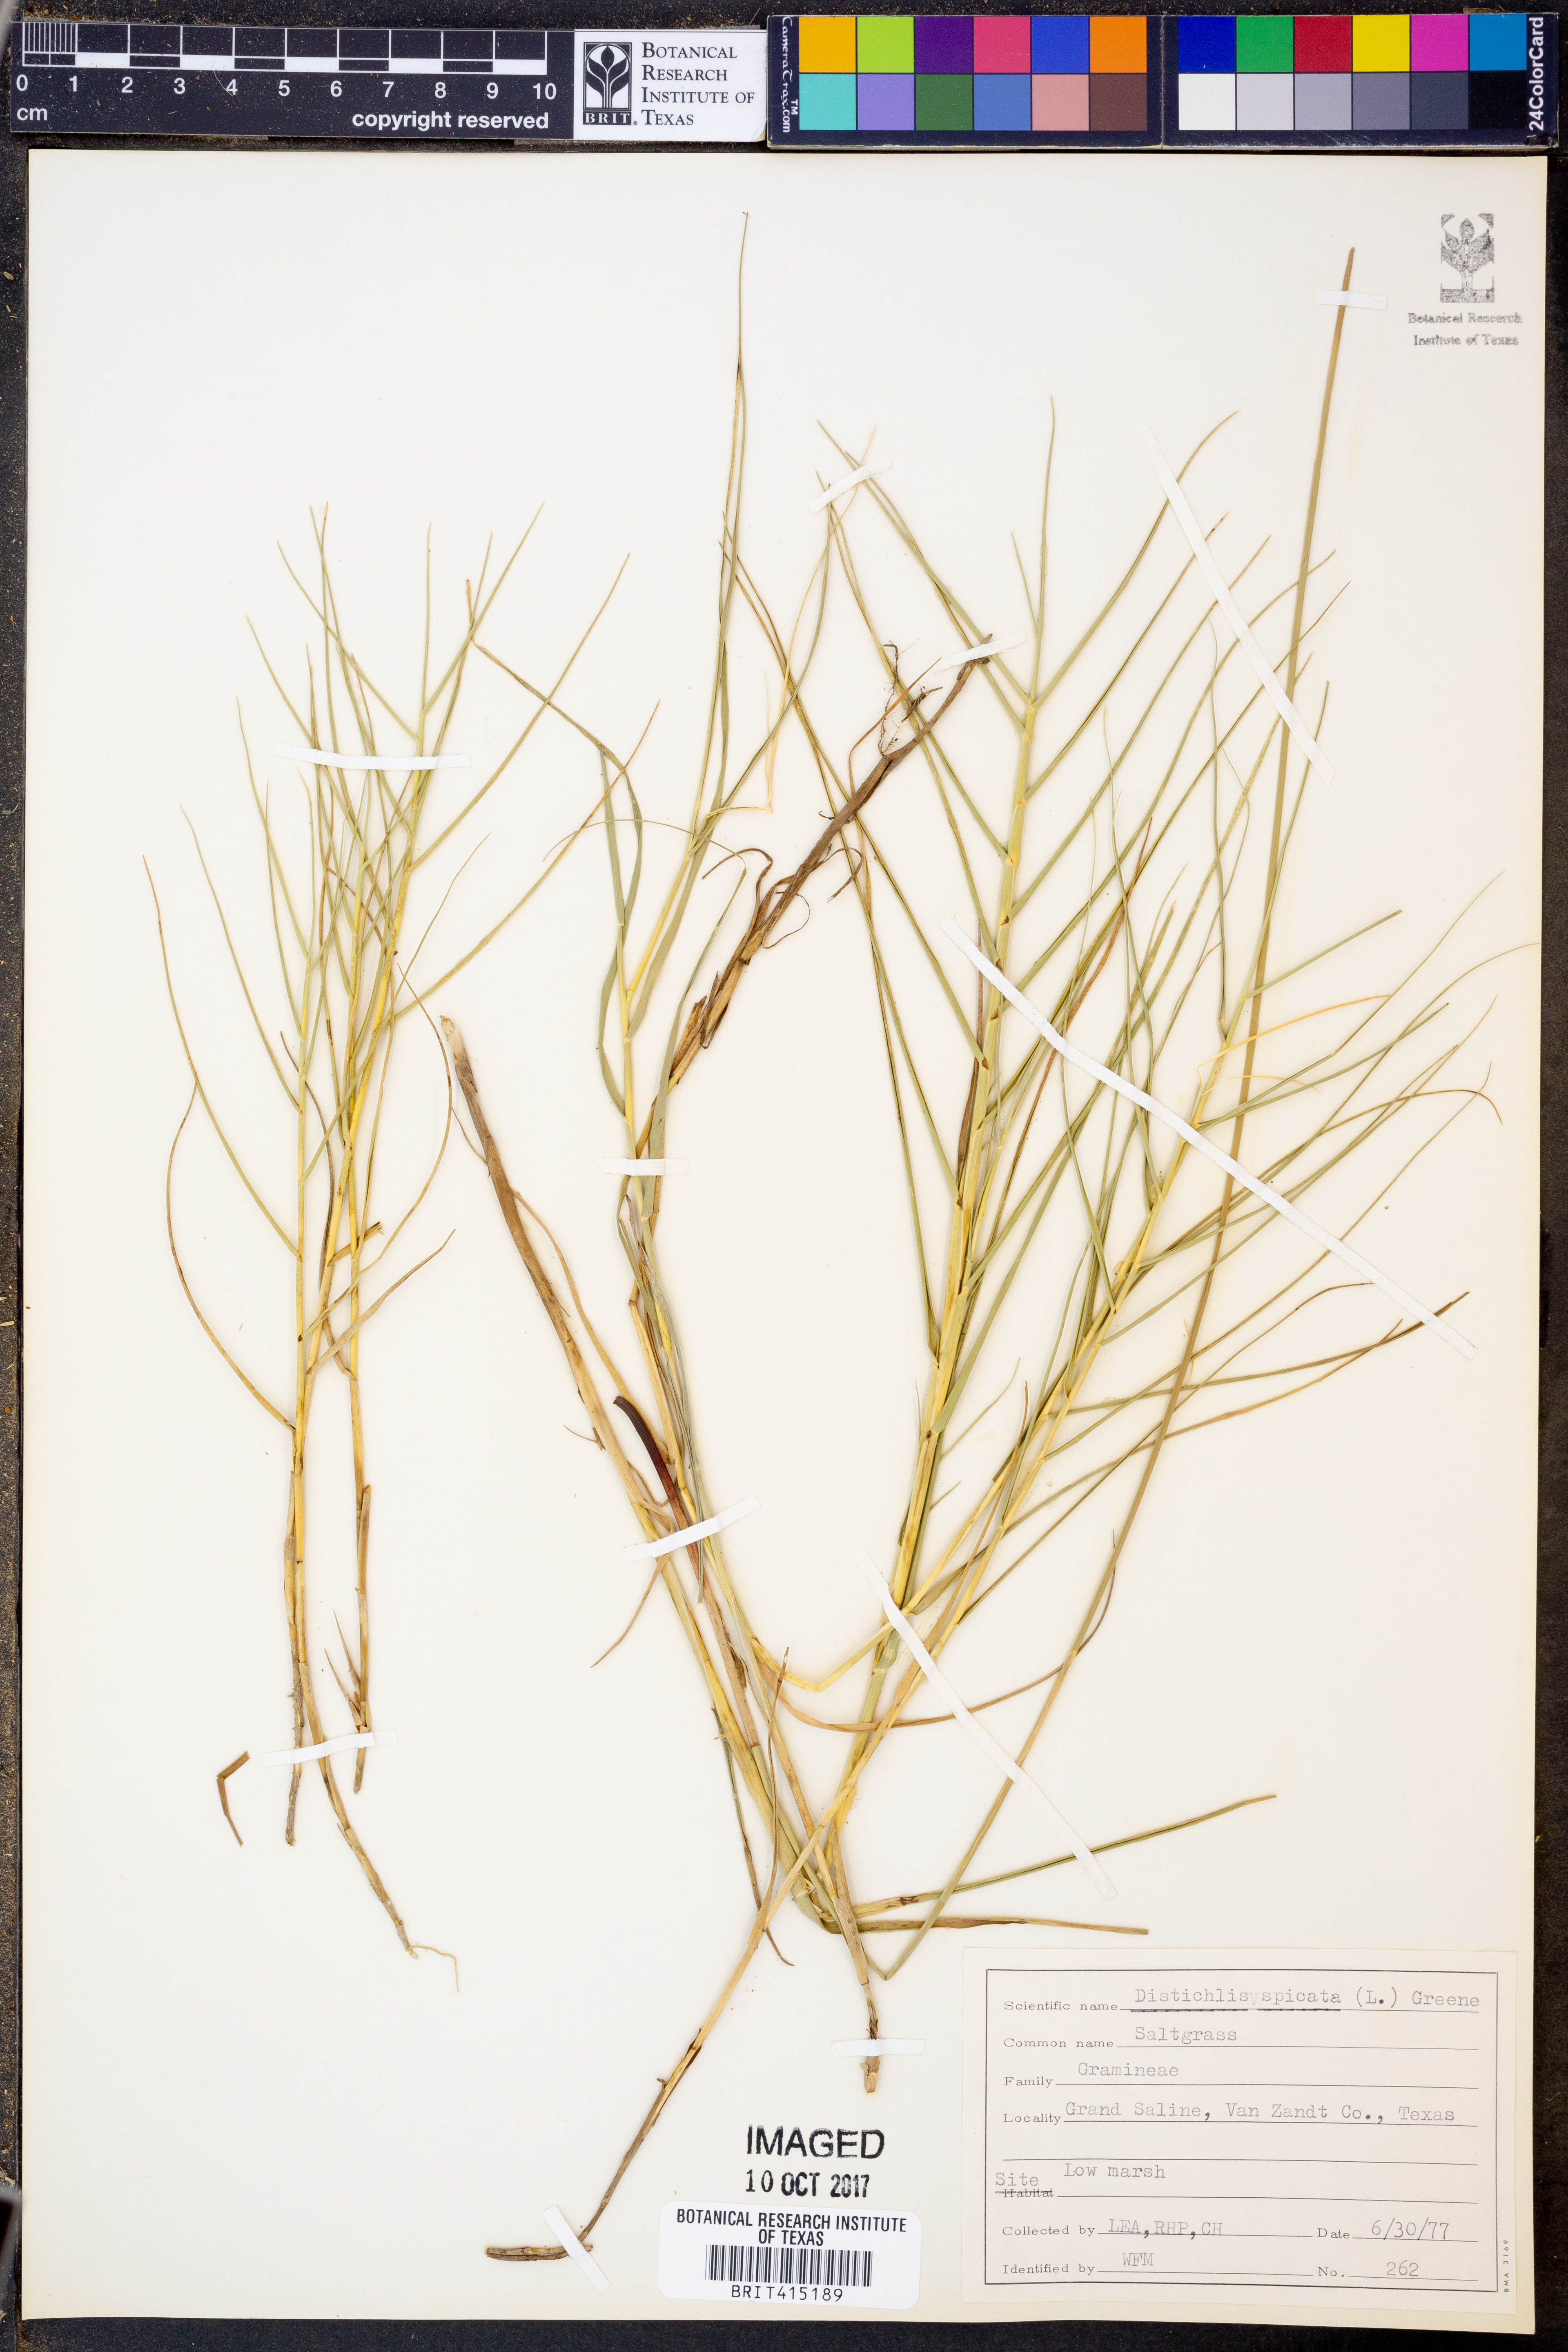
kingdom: Plantae
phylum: Tracheophyta
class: Liliopsida
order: Poales
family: Poaceae
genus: Distichlis
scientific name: Distichlis spicata
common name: Saltgrass
